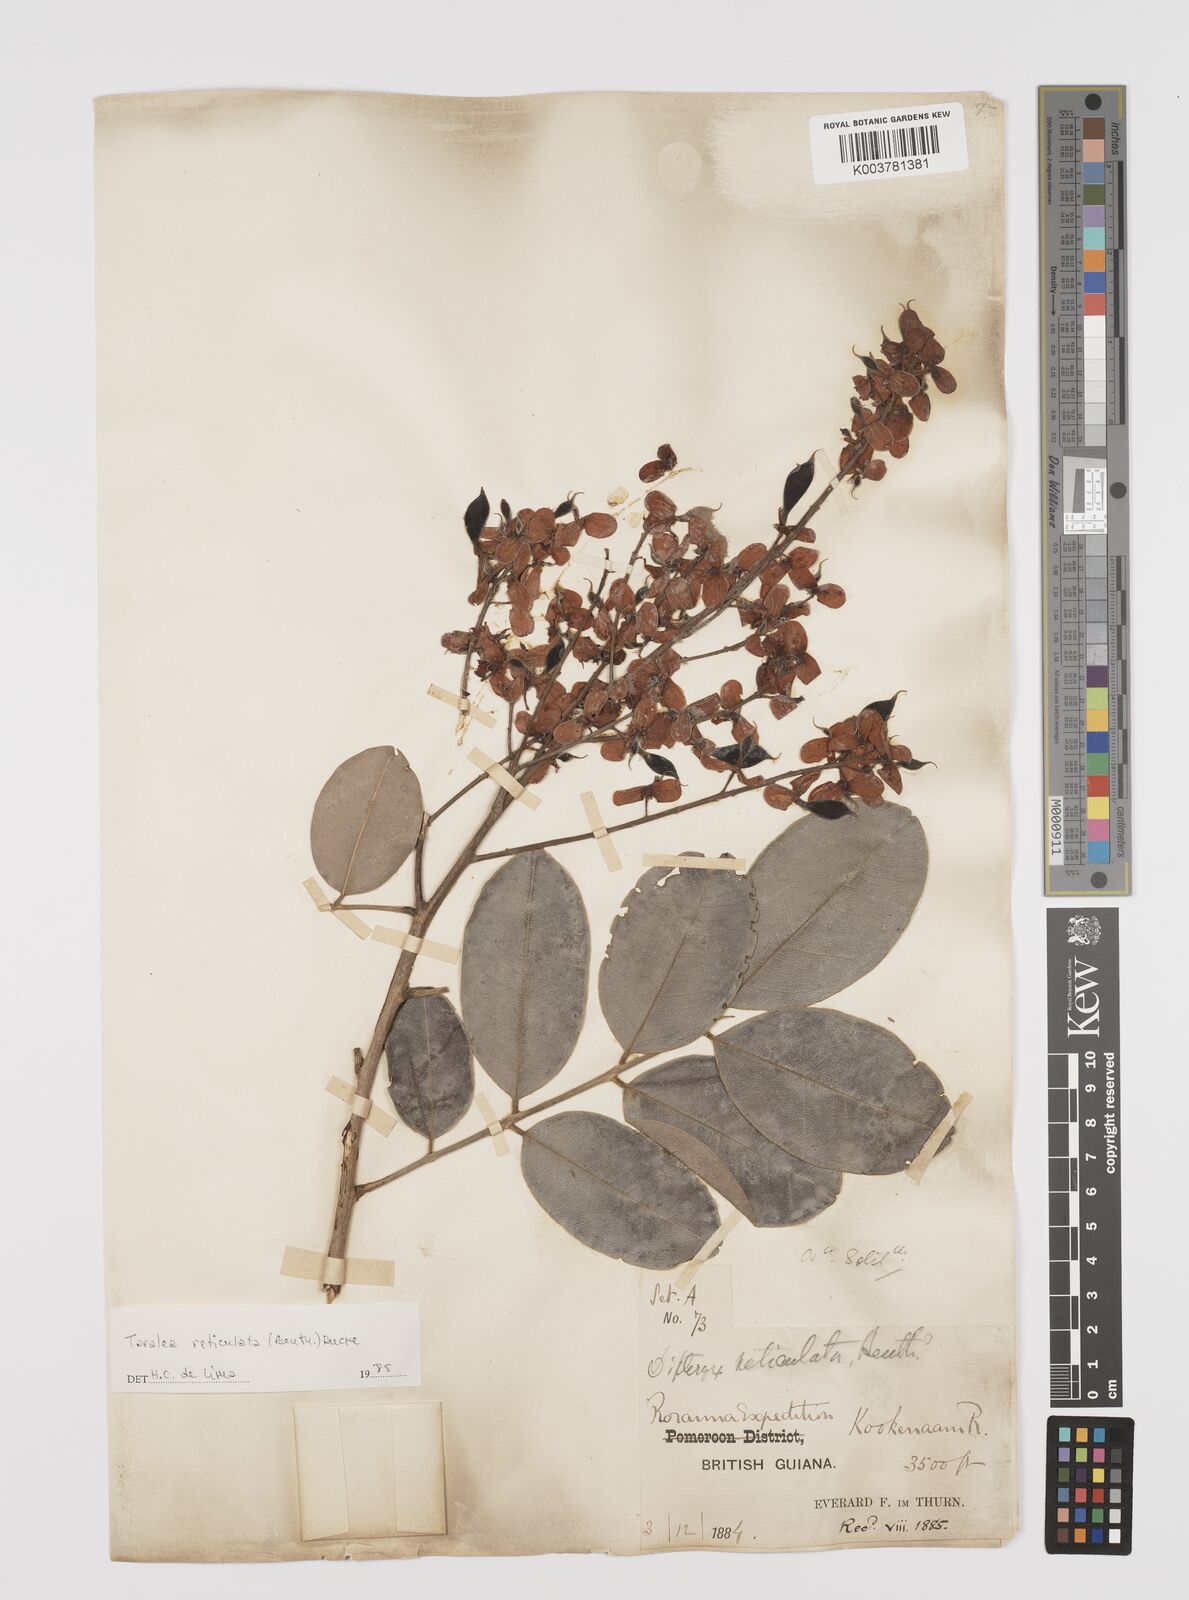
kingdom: Plantae
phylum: Tracheophyta
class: Magnoliopsida
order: Fabales
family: Fabaceae
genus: Taralea
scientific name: Taralea reticulata
